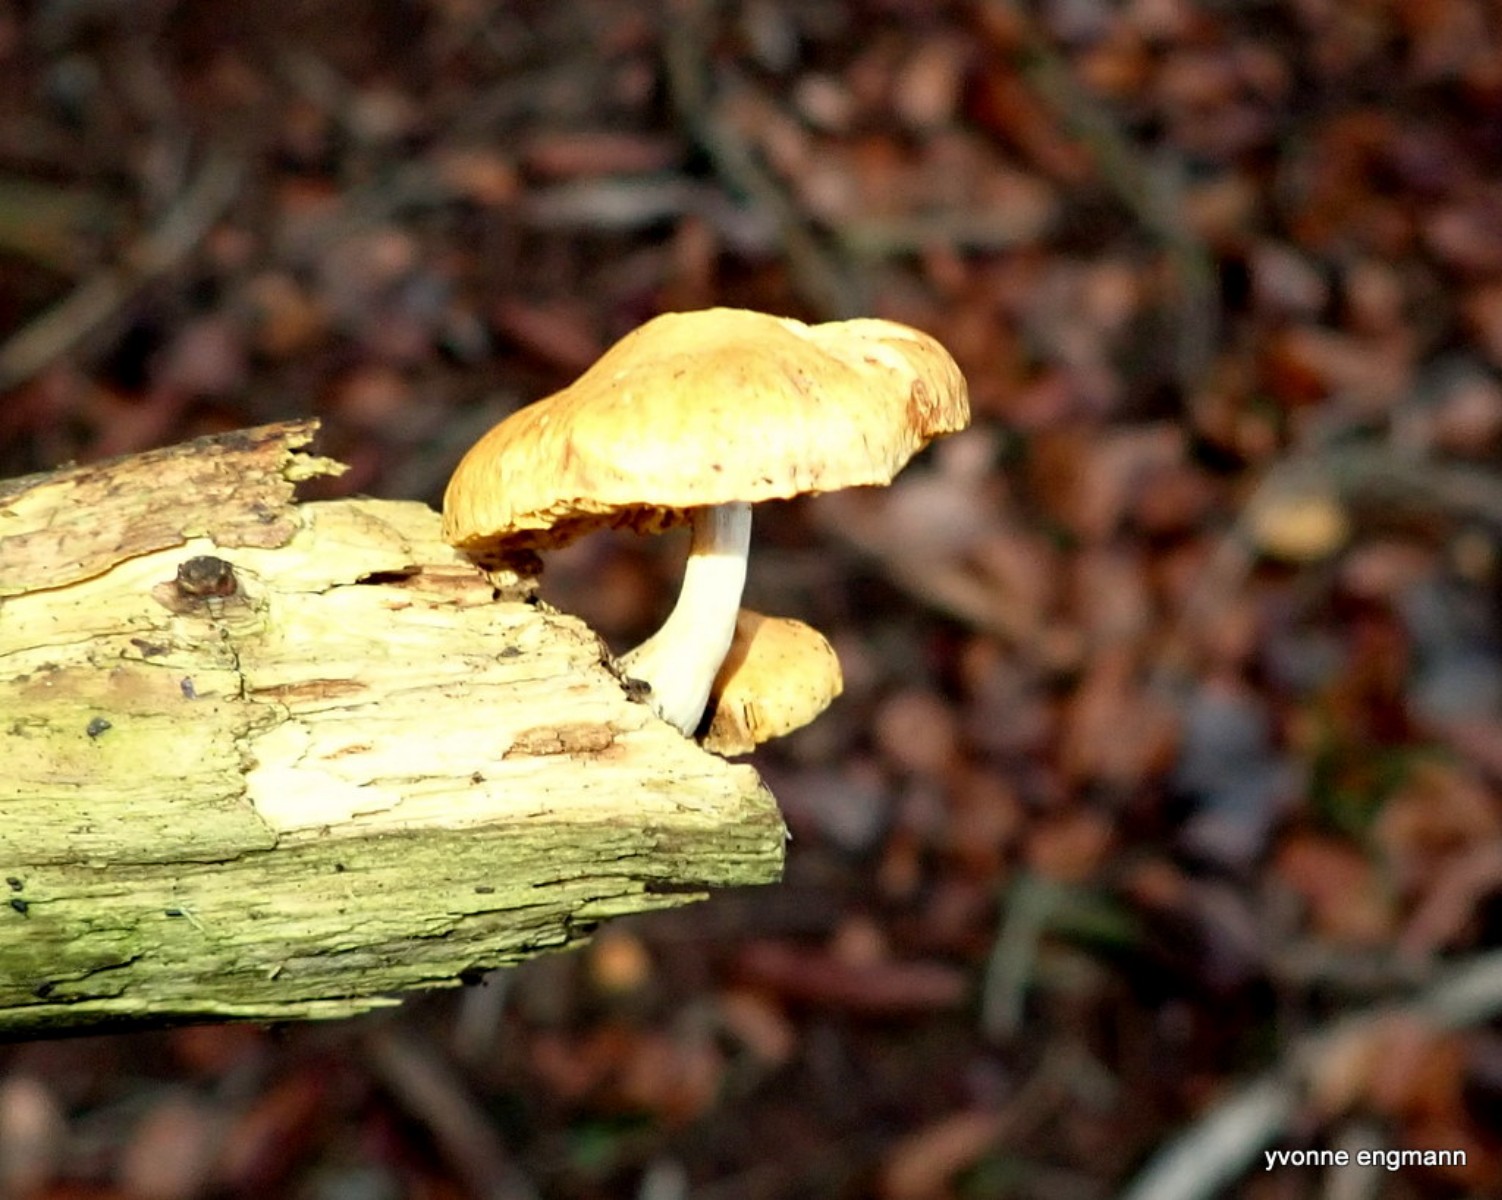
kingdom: Fungi
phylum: Basidiomycota
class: Agaricomycetes
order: Agaricales
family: Hymenogastraceae
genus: Gymnopilus
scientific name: Gymnopilus penetrans
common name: plettet flammehat
